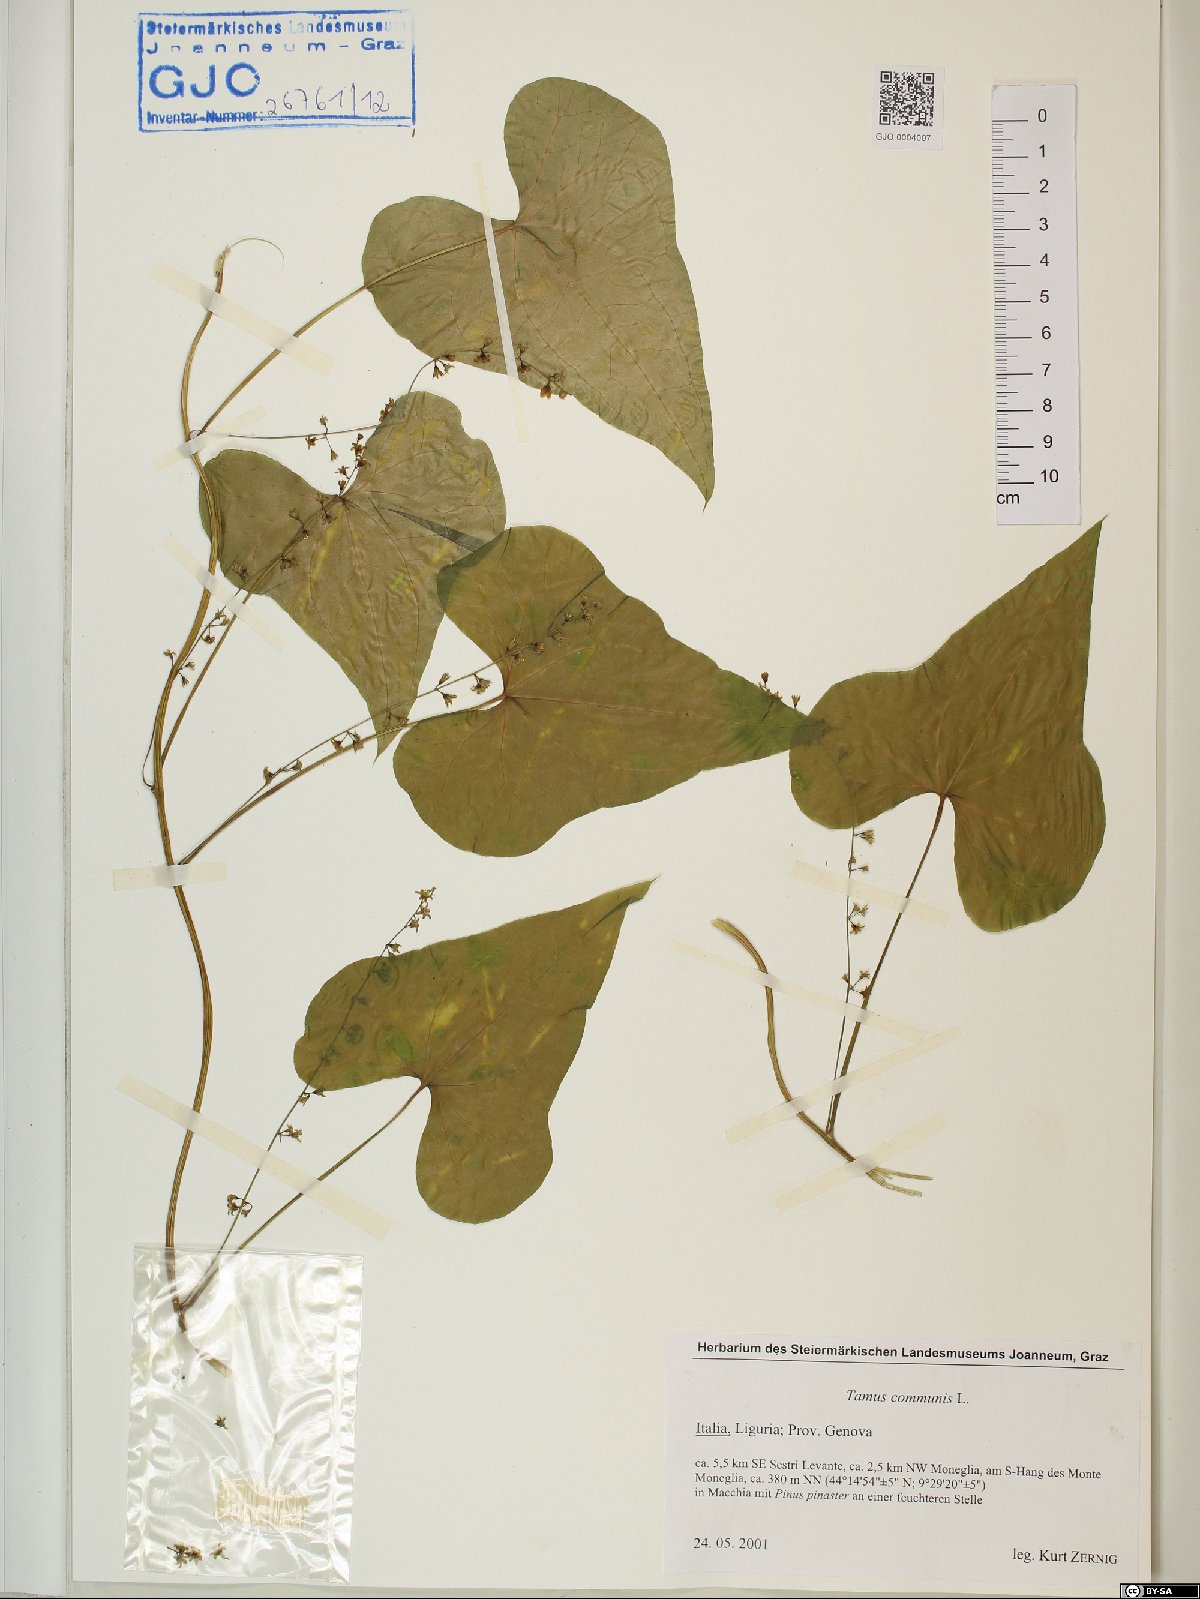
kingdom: Plantae
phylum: Tracheophyta
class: Liliopsida
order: Dioscoreales
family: Dioscoreaceae
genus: Dioscorea
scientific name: Dioscorea communis
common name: Black-bindweed
